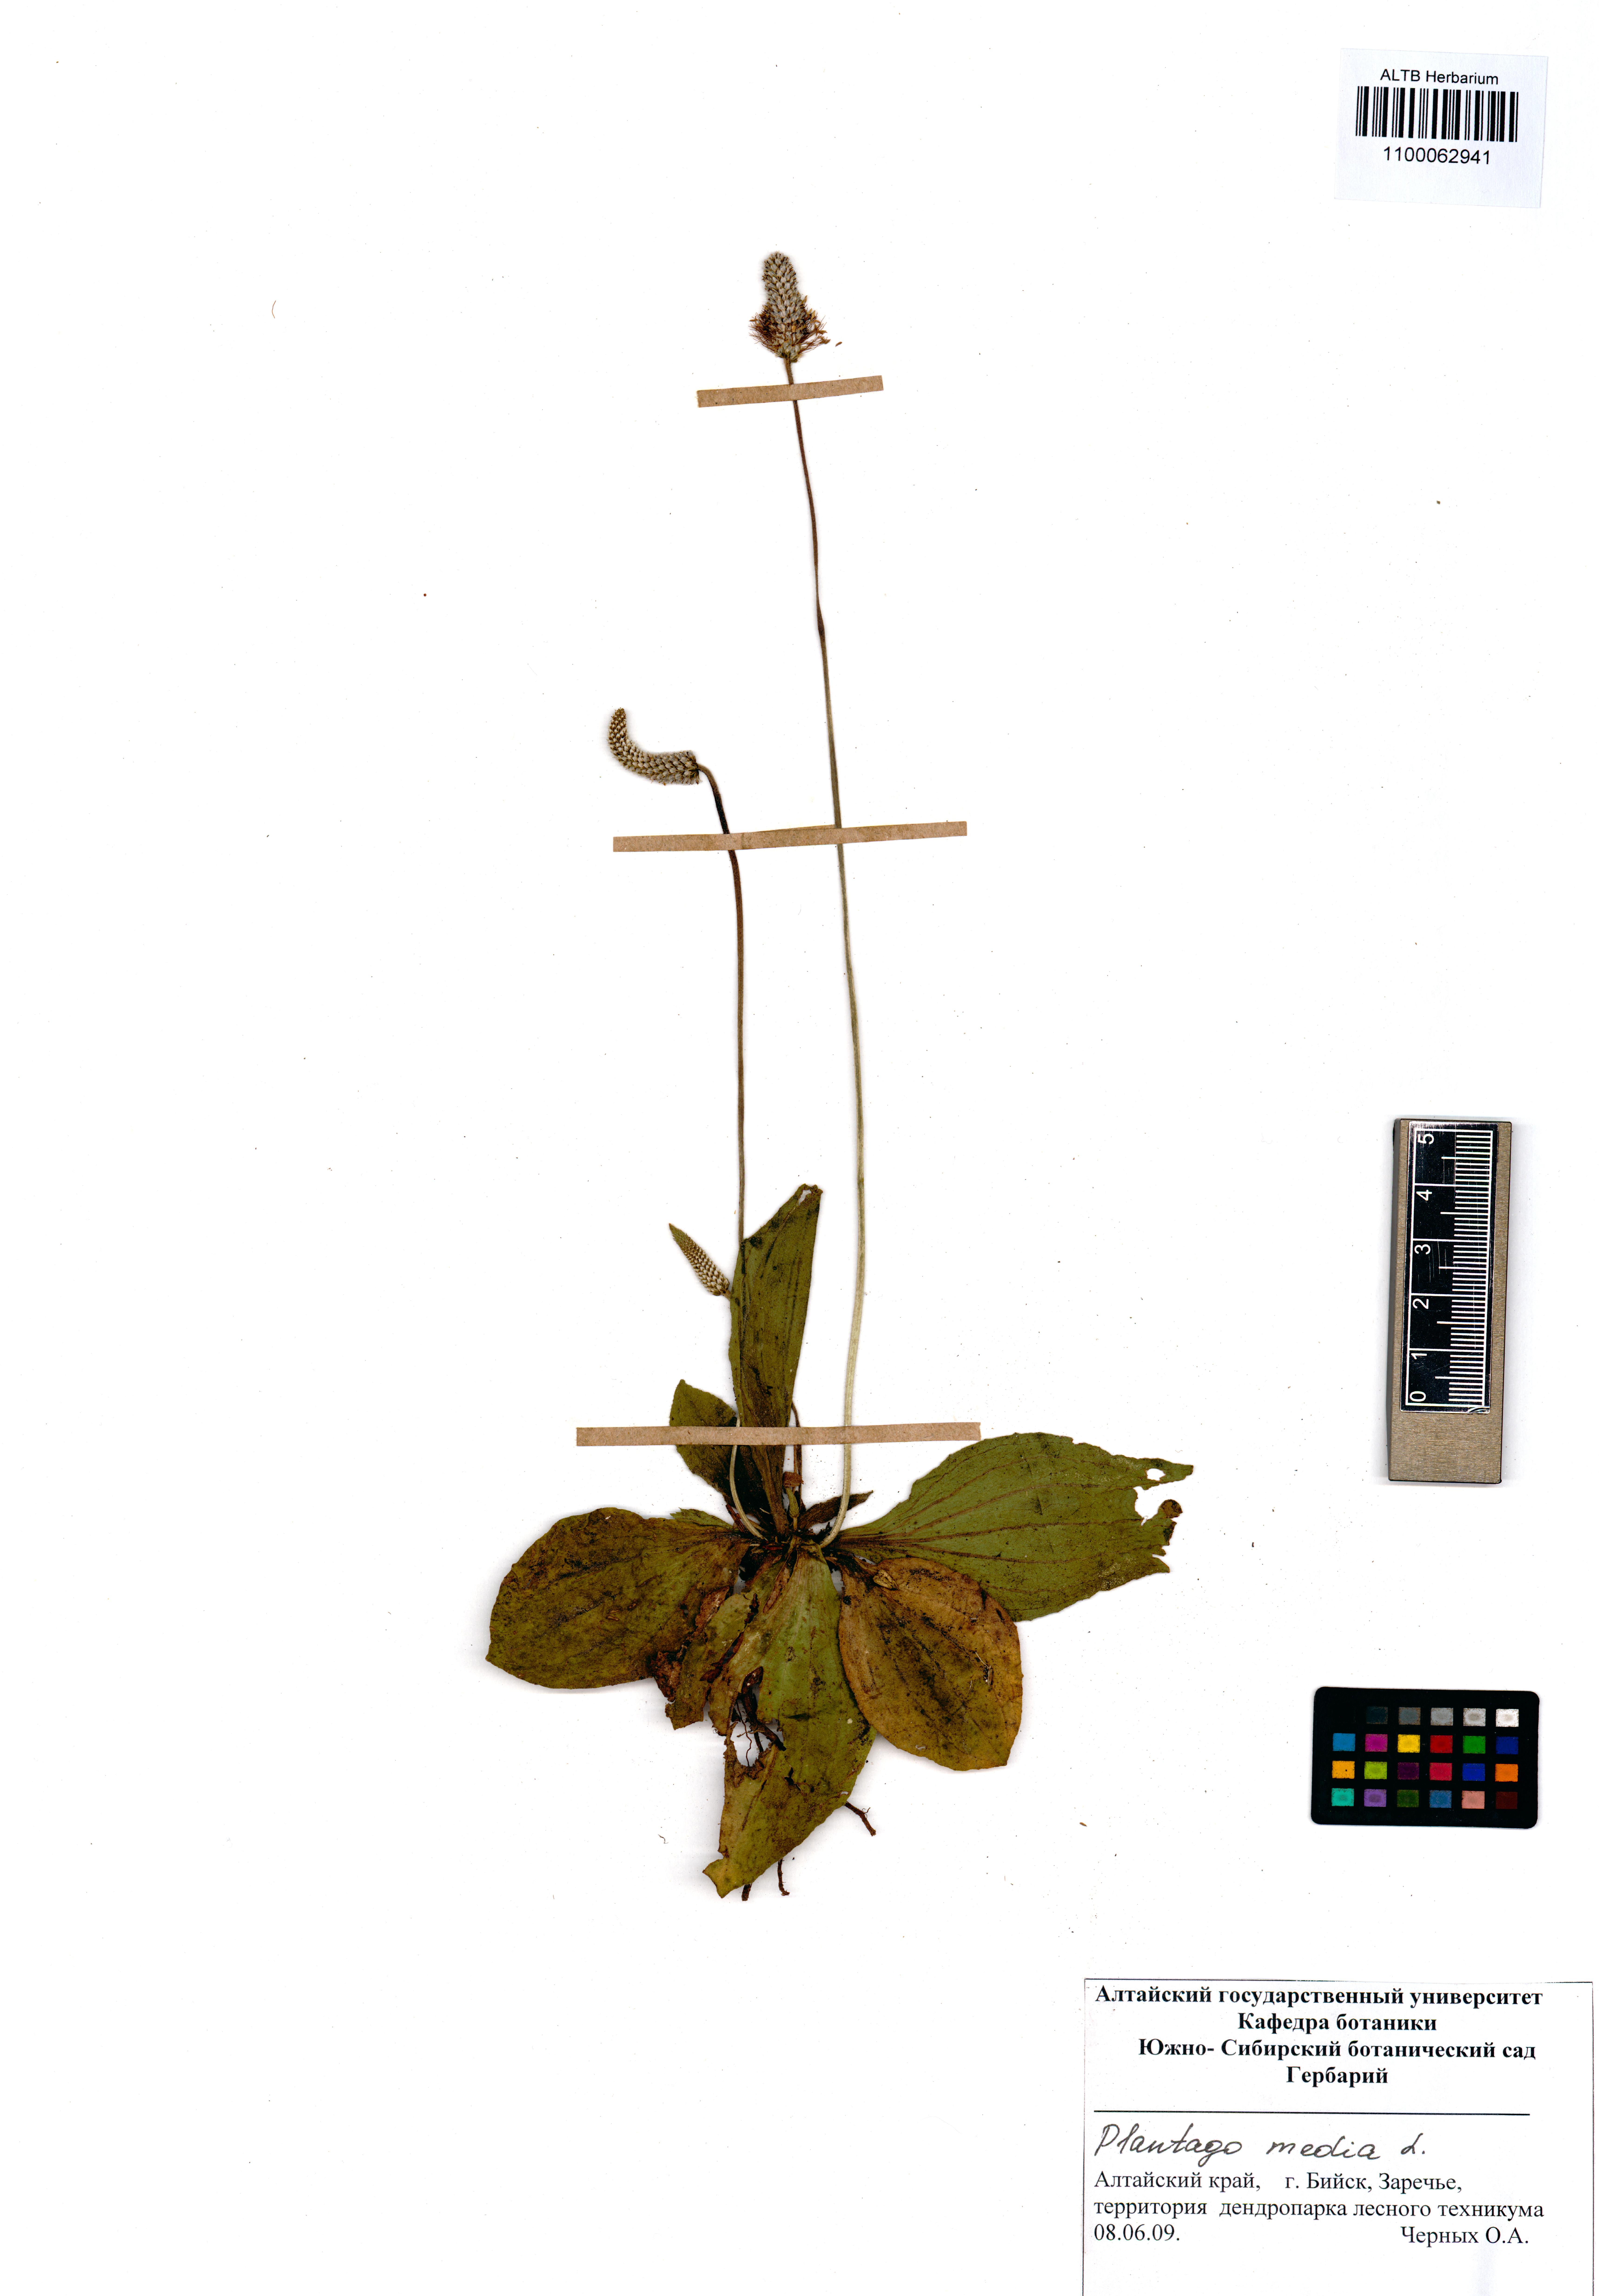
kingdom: Plantae
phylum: Tracheophyta
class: Magnoliopsida
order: Lamiales
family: Plantaginaceae
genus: Plantago
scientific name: Plantago media
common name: Hoary plantain
